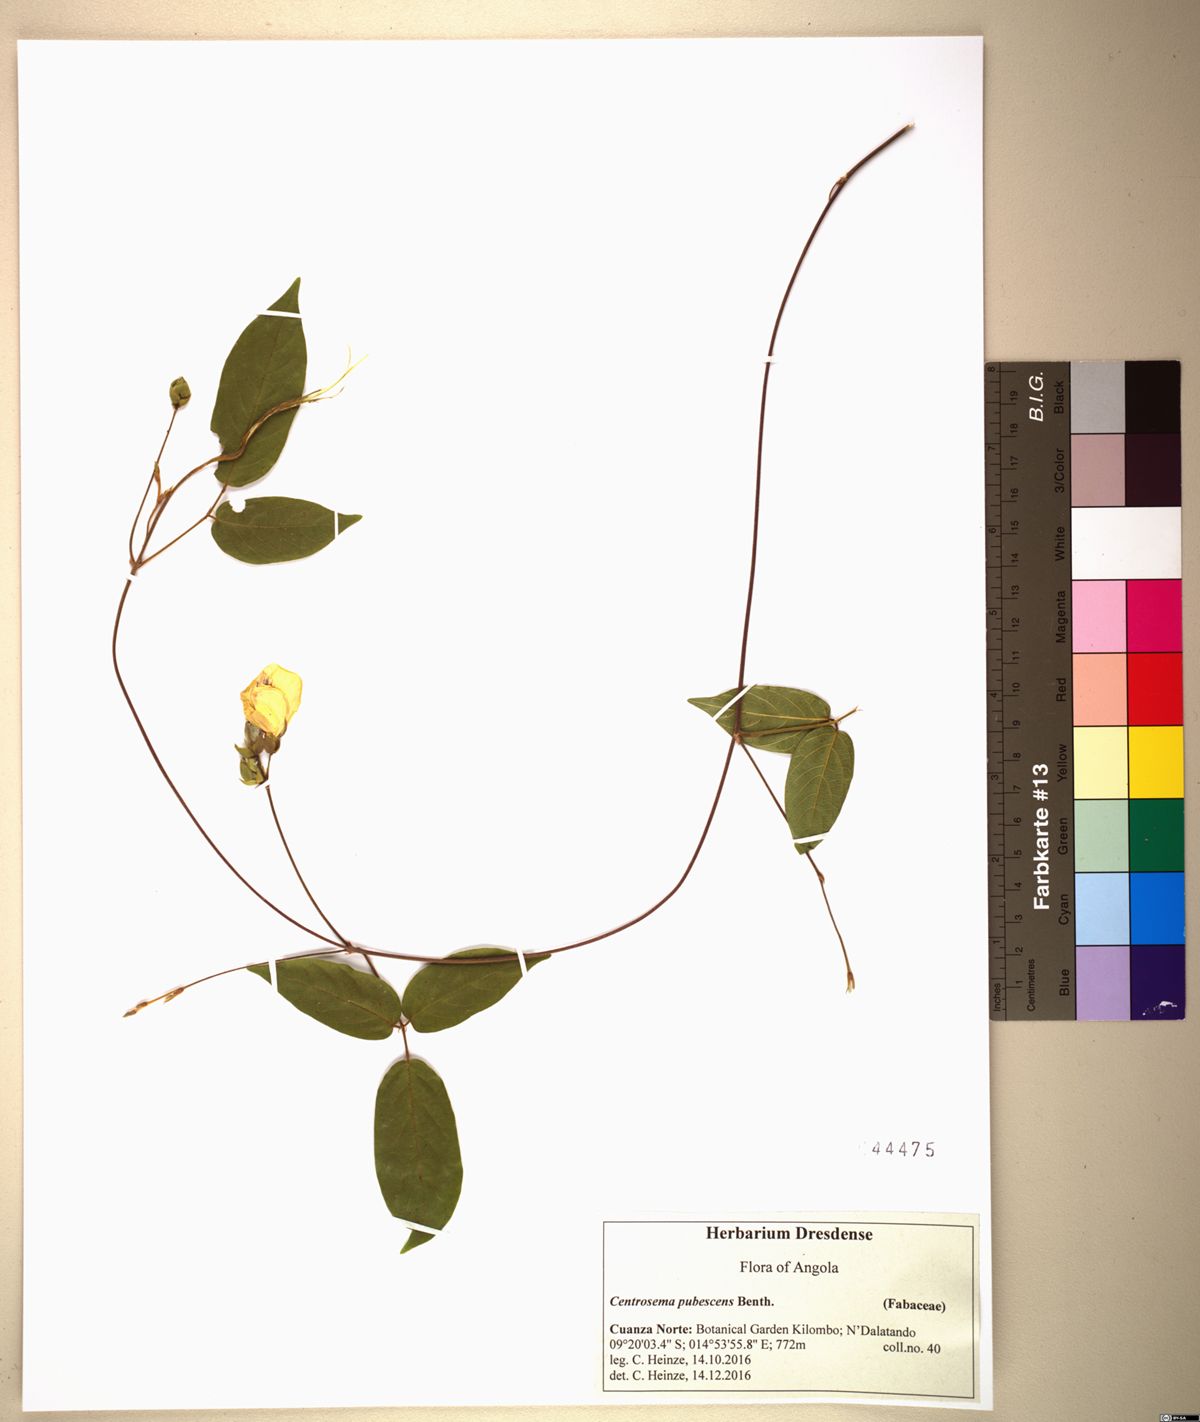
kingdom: Plantae
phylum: Tracheophyta
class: Magnoliopsida
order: Fabales
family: Fabaceae
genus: Centrosema
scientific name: Centrosema pubescens
